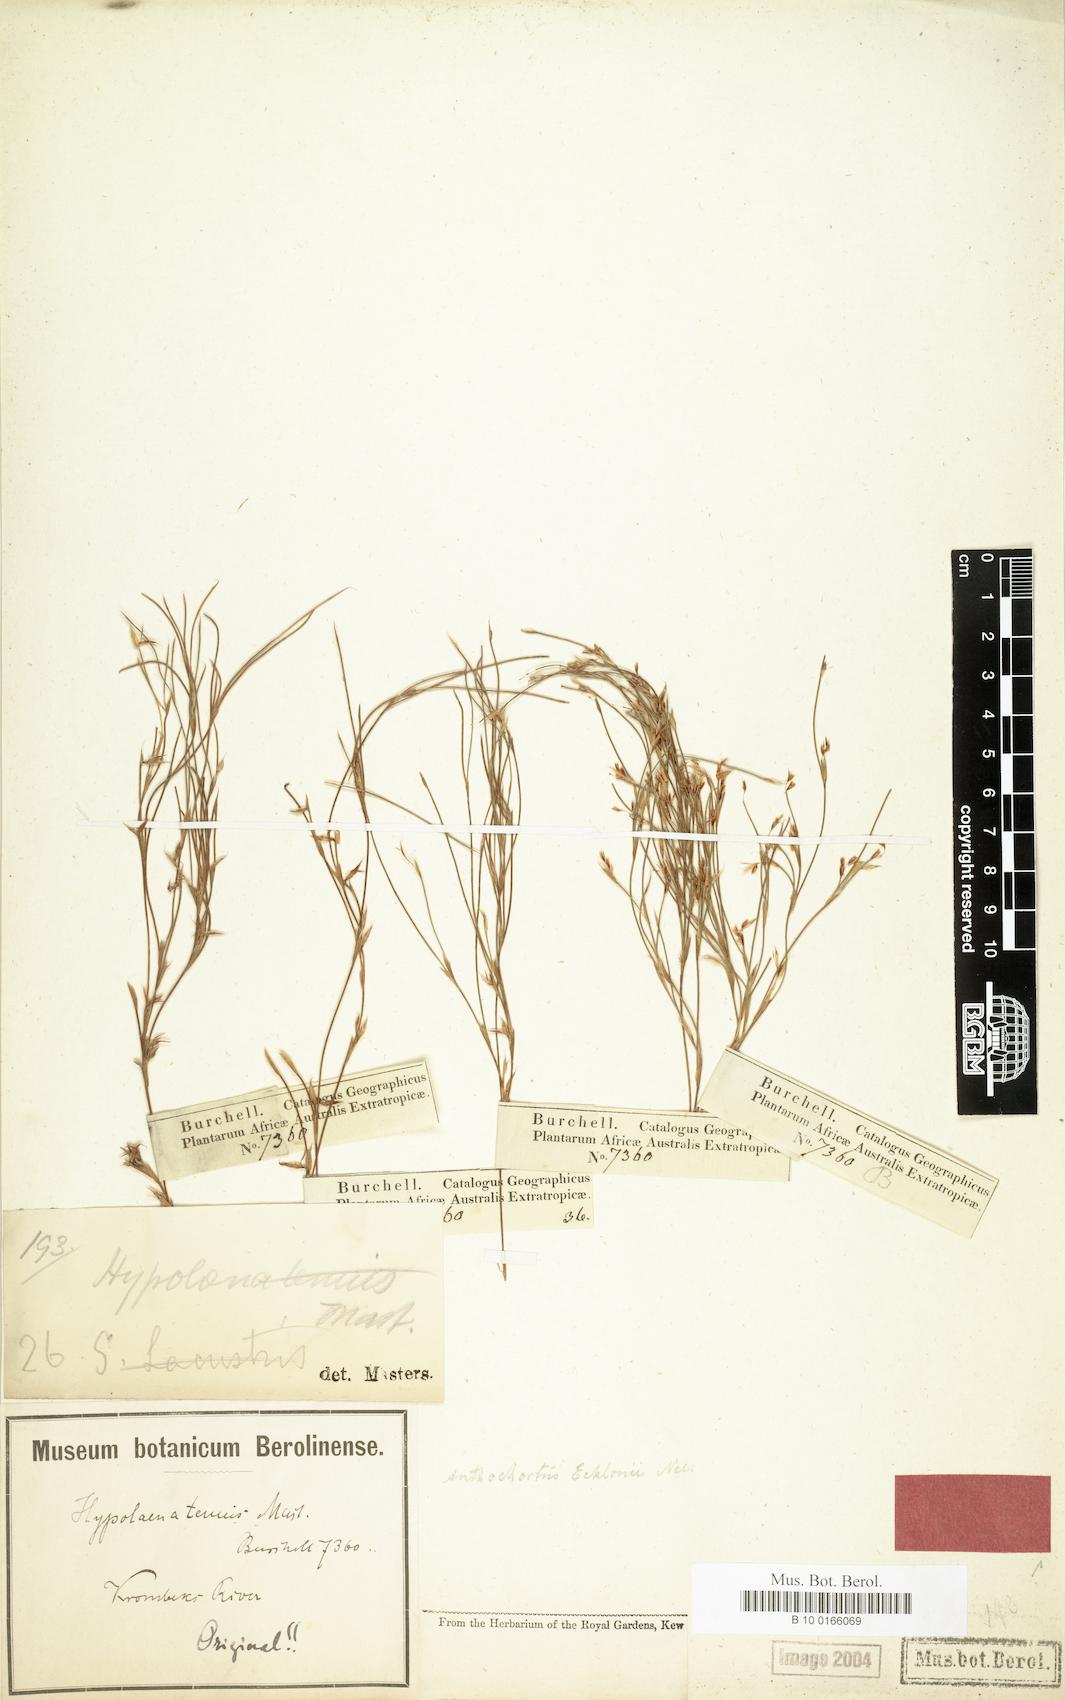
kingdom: Plantae
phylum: Tracheophyta
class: Liliopsida
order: Poales
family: Restionaceae
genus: Anthochortus
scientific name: Anthochortus ecklonii
